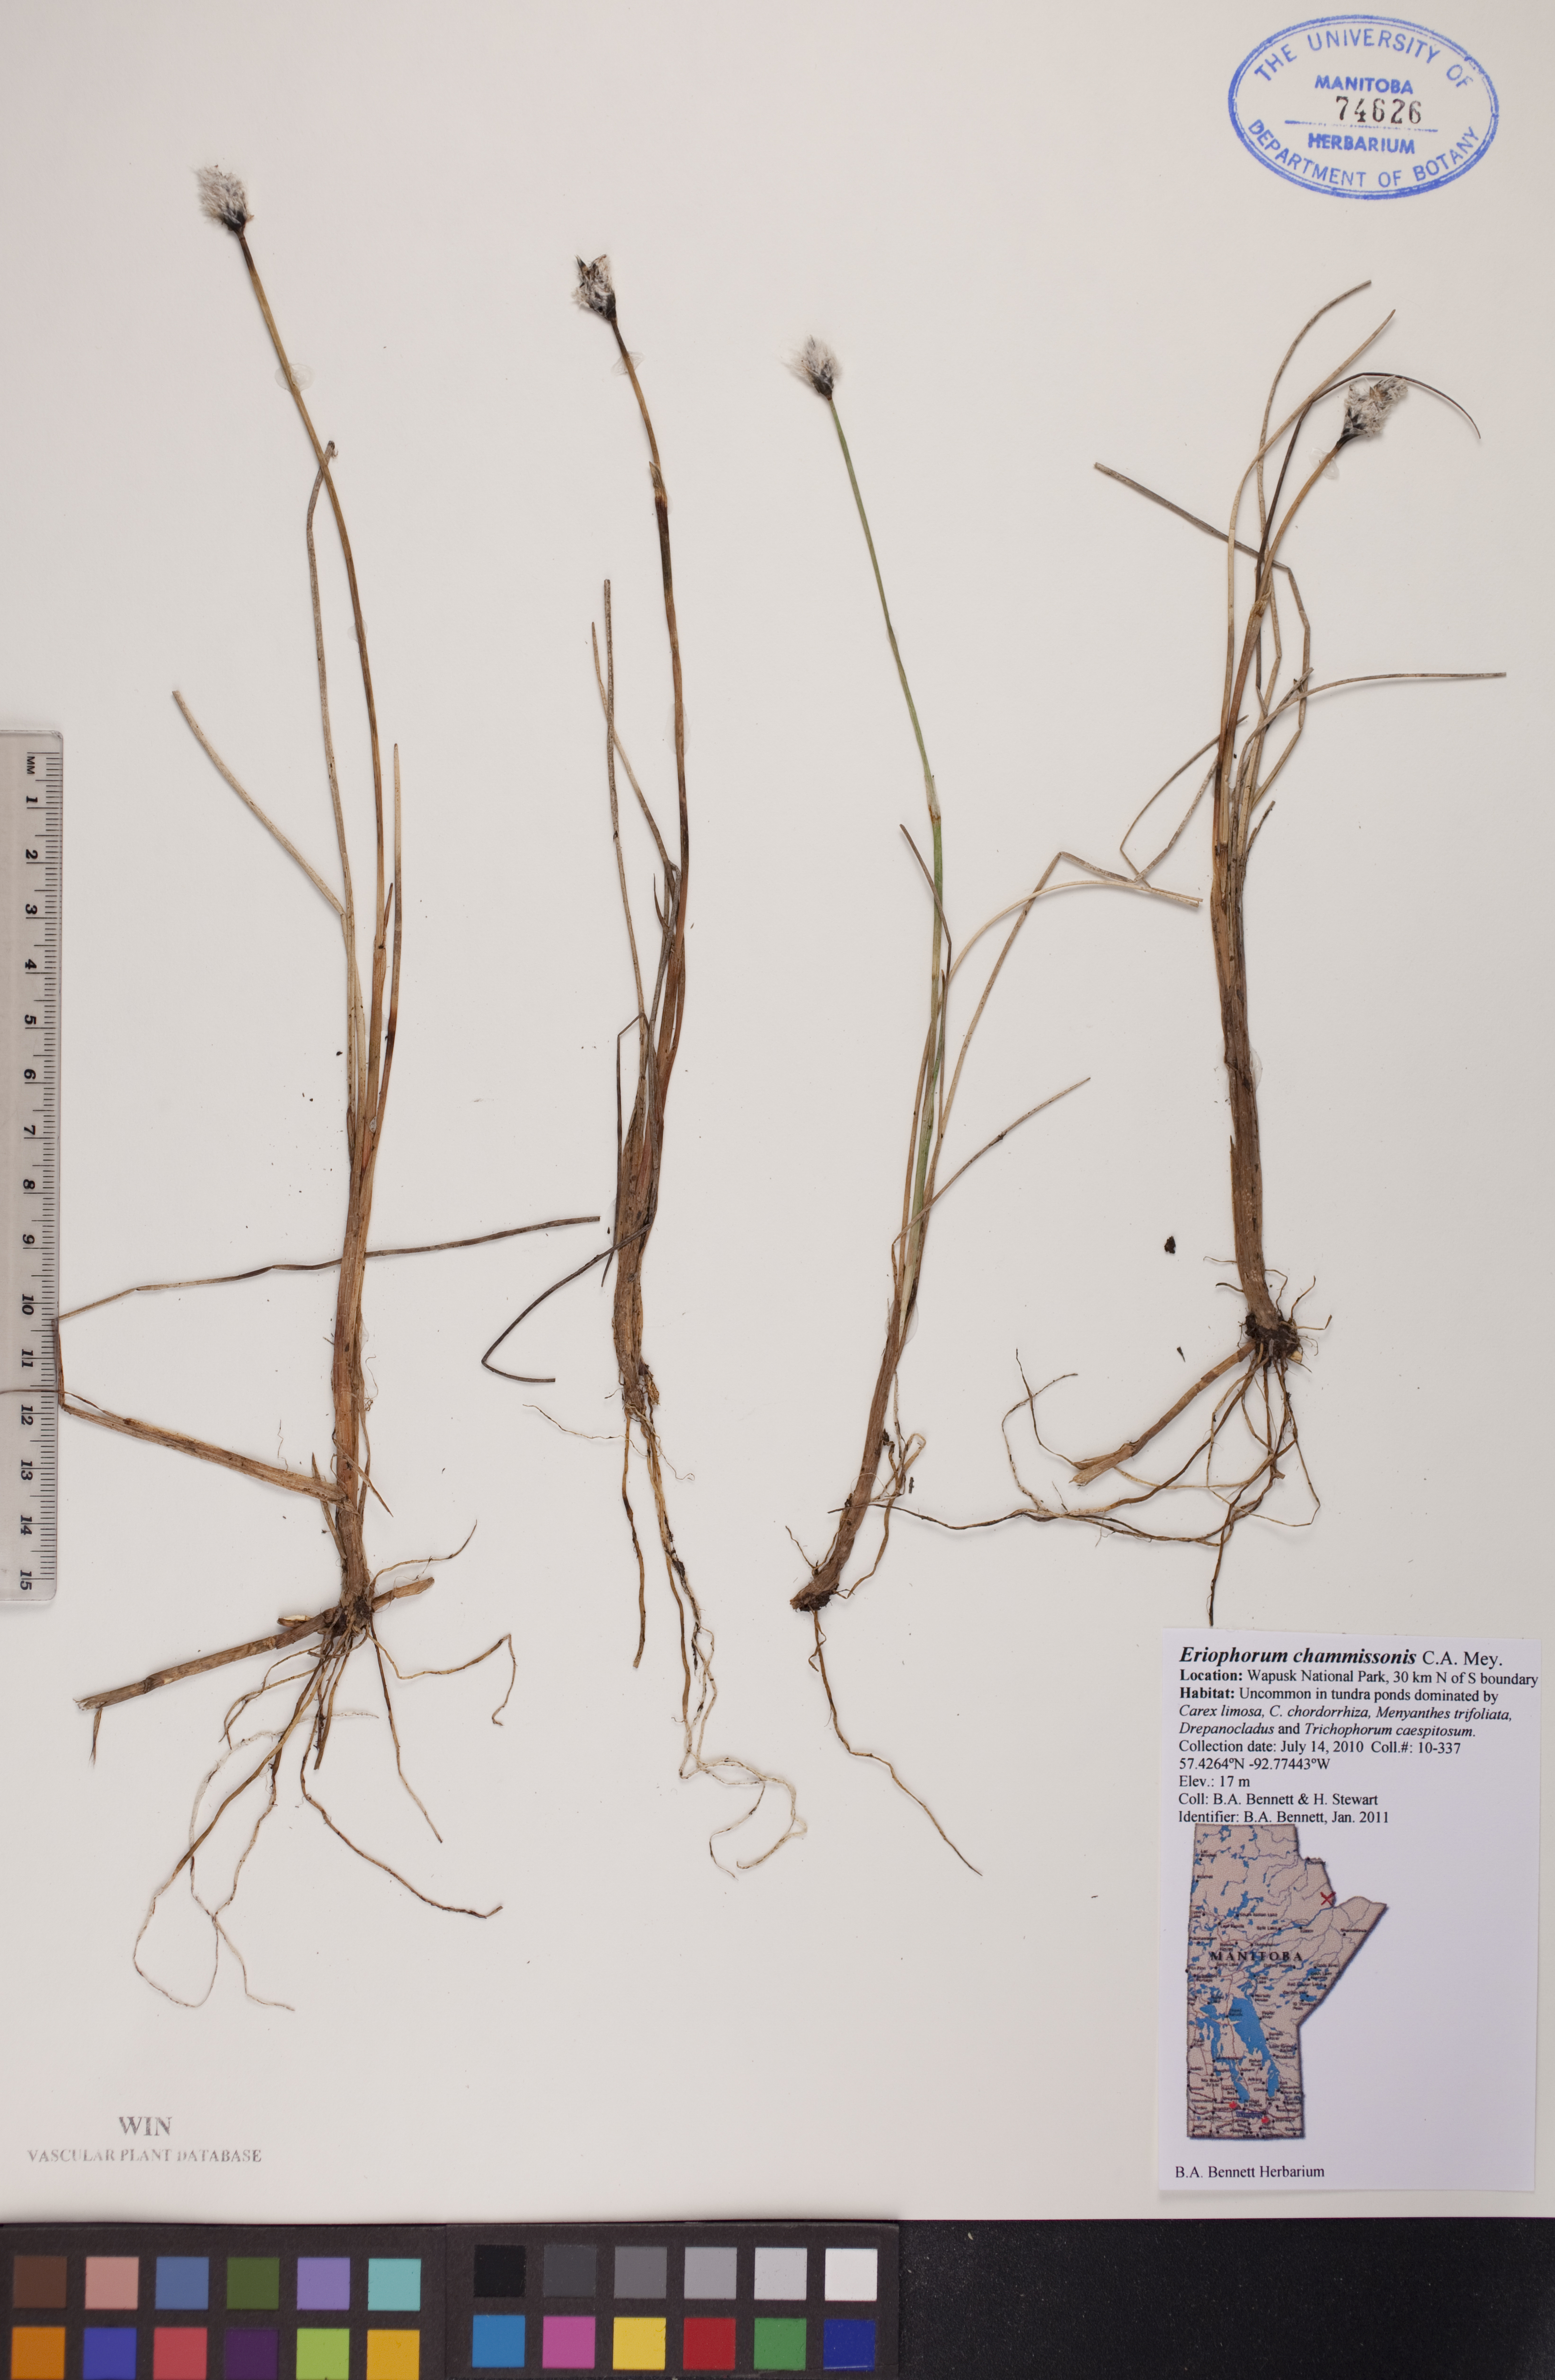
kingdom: Plantae
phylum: Tracheophyta
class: Liliopsida
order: Poales
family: Cyperaceae
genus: Eriophorum
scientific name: Eriophorum chamissonis
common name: Chamisso's cottongrass
